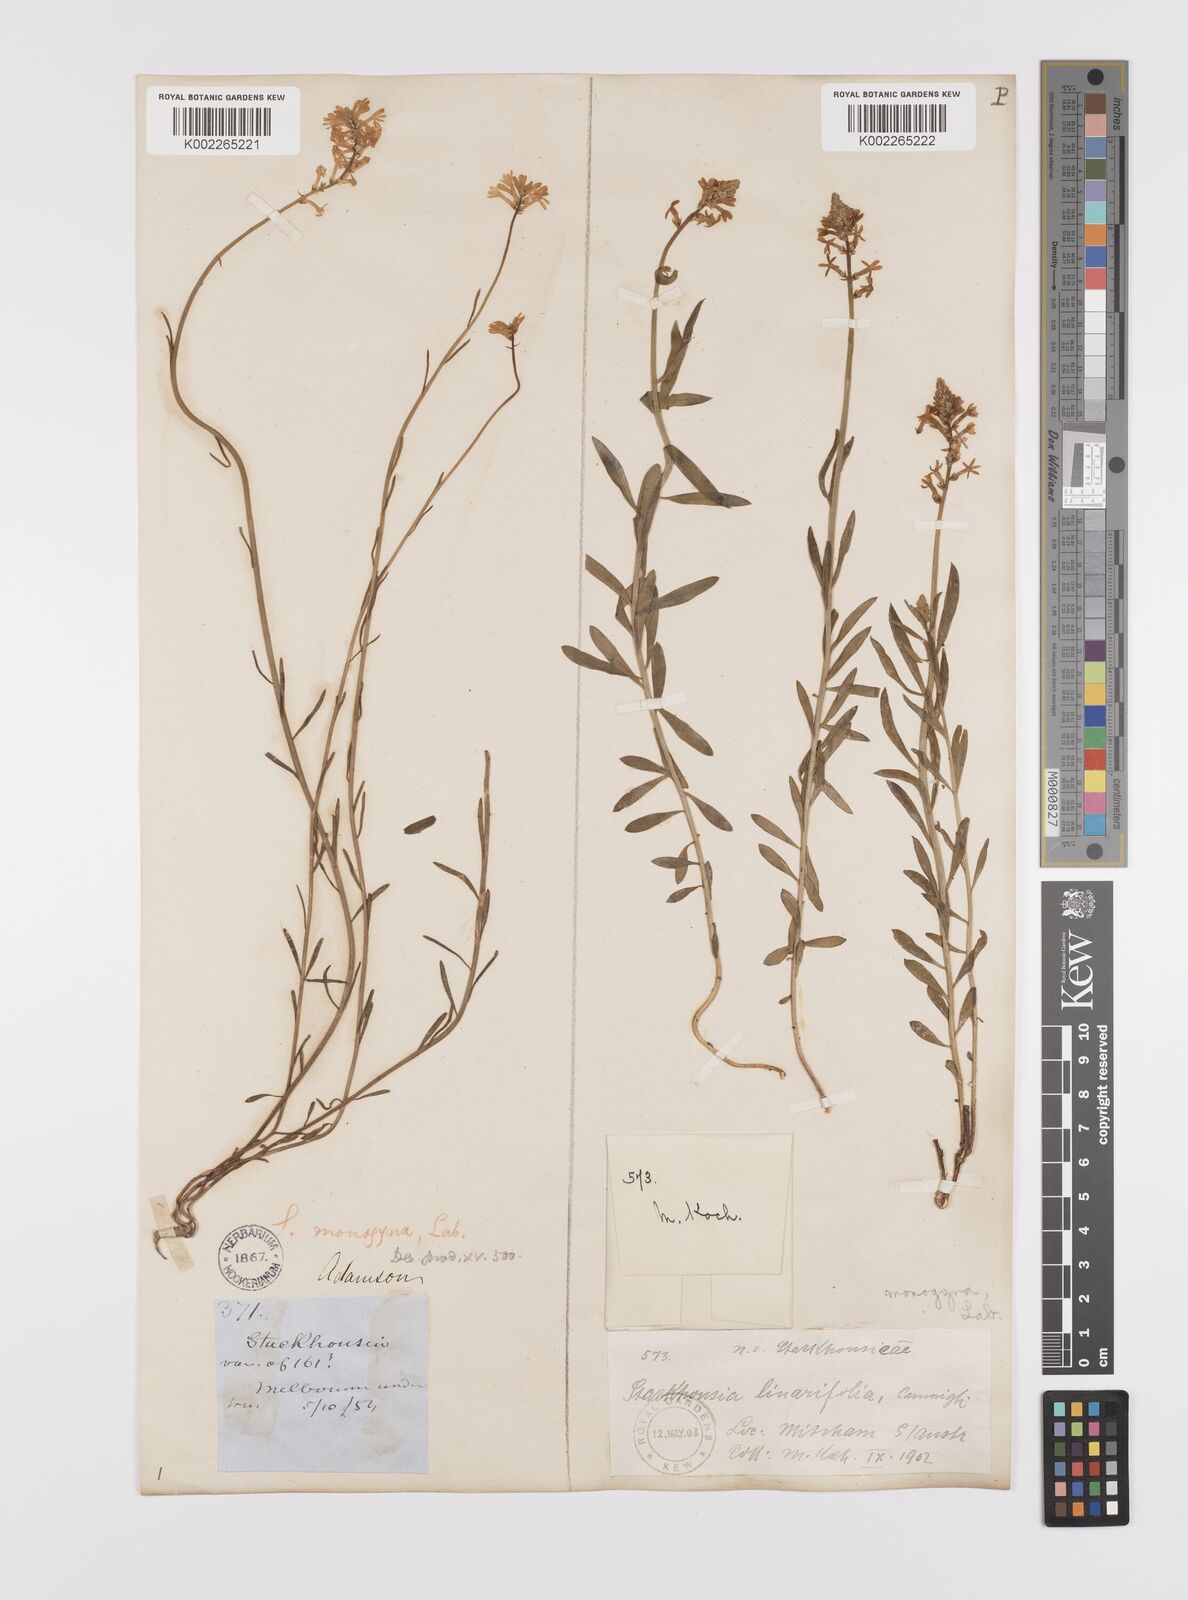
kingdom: Plantae
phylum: Tracheophyta
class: Magnoliopsida
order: Celastrales
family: Celastraceae
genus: Stackhousia
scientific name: Stackhousia monogyna
